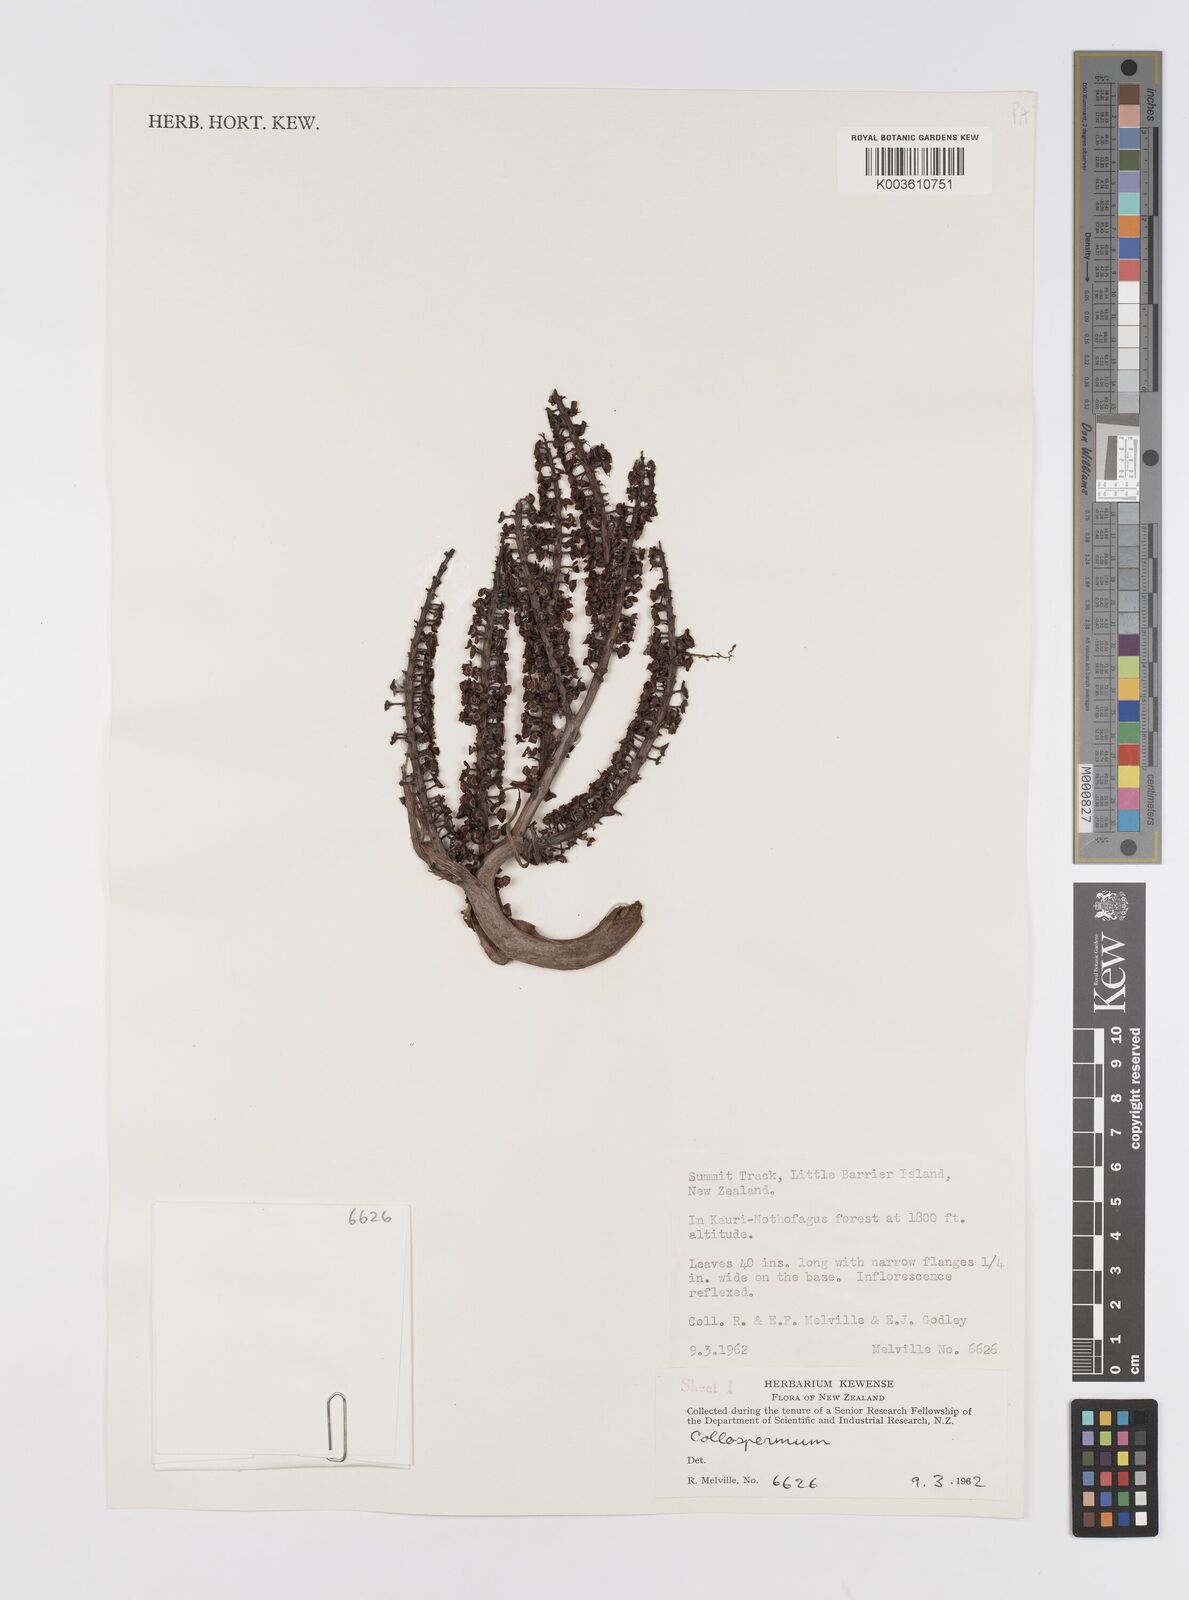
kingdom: Plantae
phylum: Tracheophyta
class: Liliopsida
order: Asparagales
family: Asteliaceae
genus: Astelia
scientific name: Astelia
